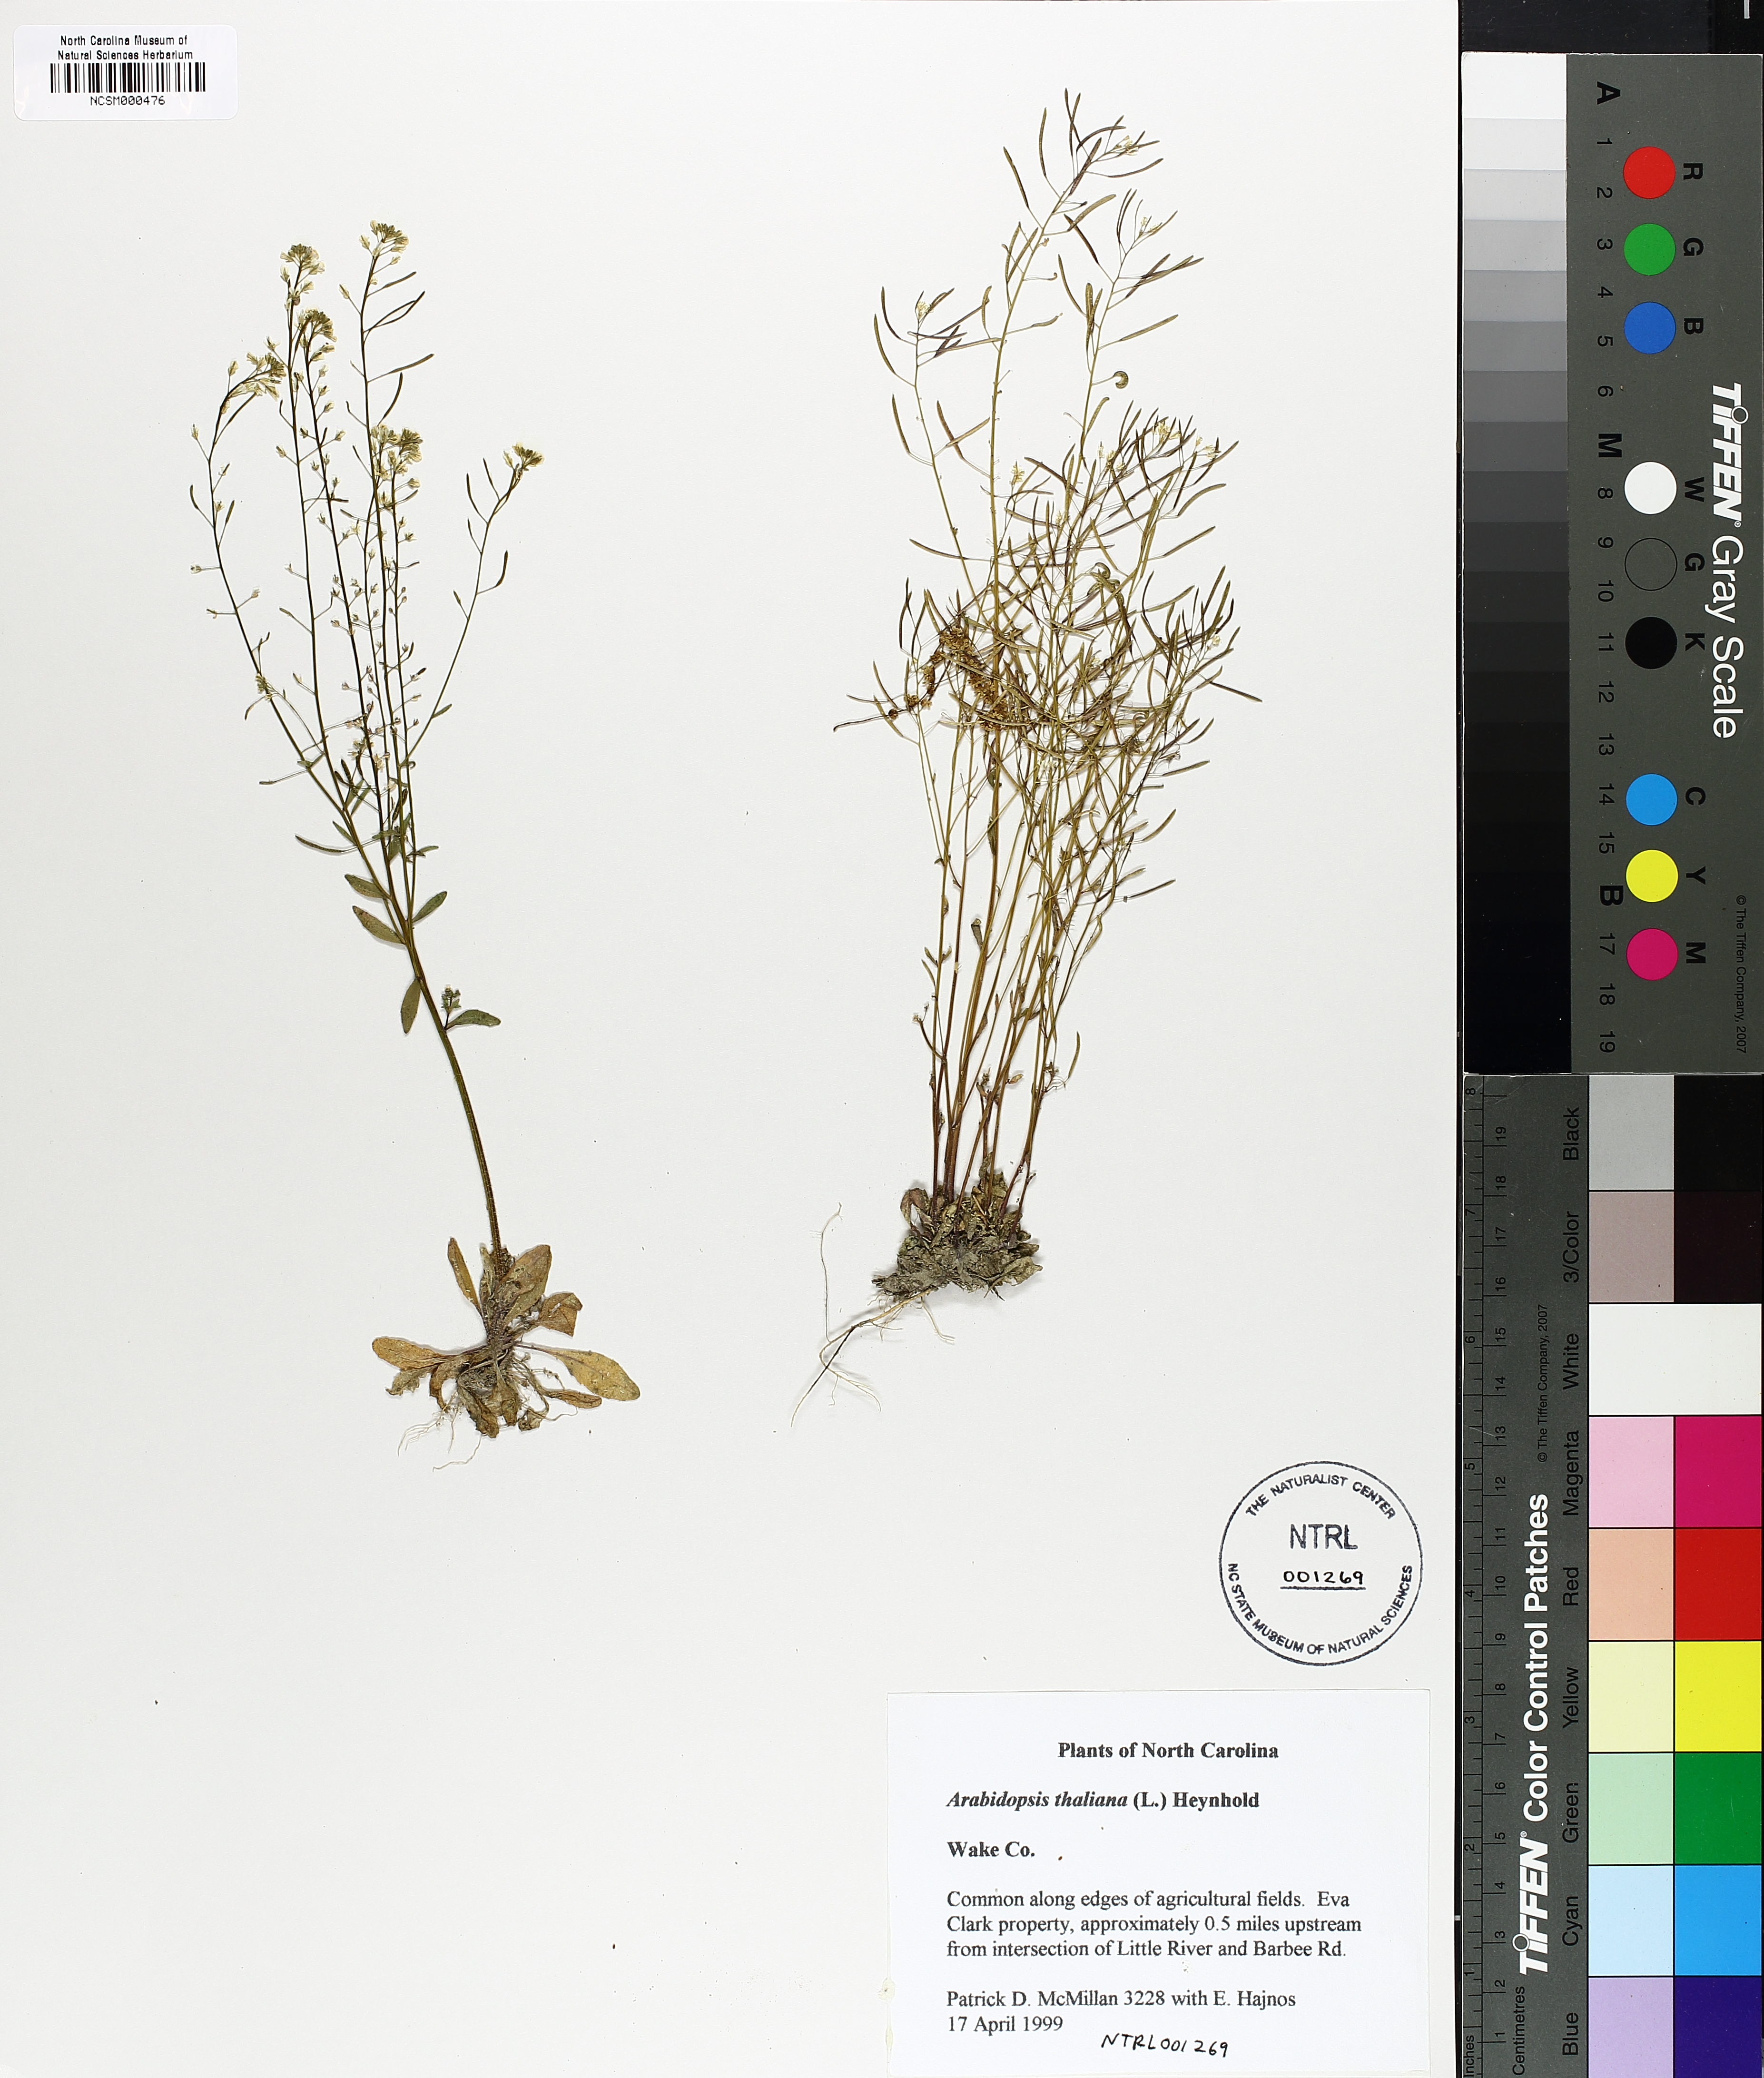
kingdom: Plantae
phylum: Tracheophyta
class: Magnoliopsida
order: Brassicales
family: Brassicaceae
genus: Arabidopsis
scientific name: Arabidopsis thaliana
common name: Thale cress
